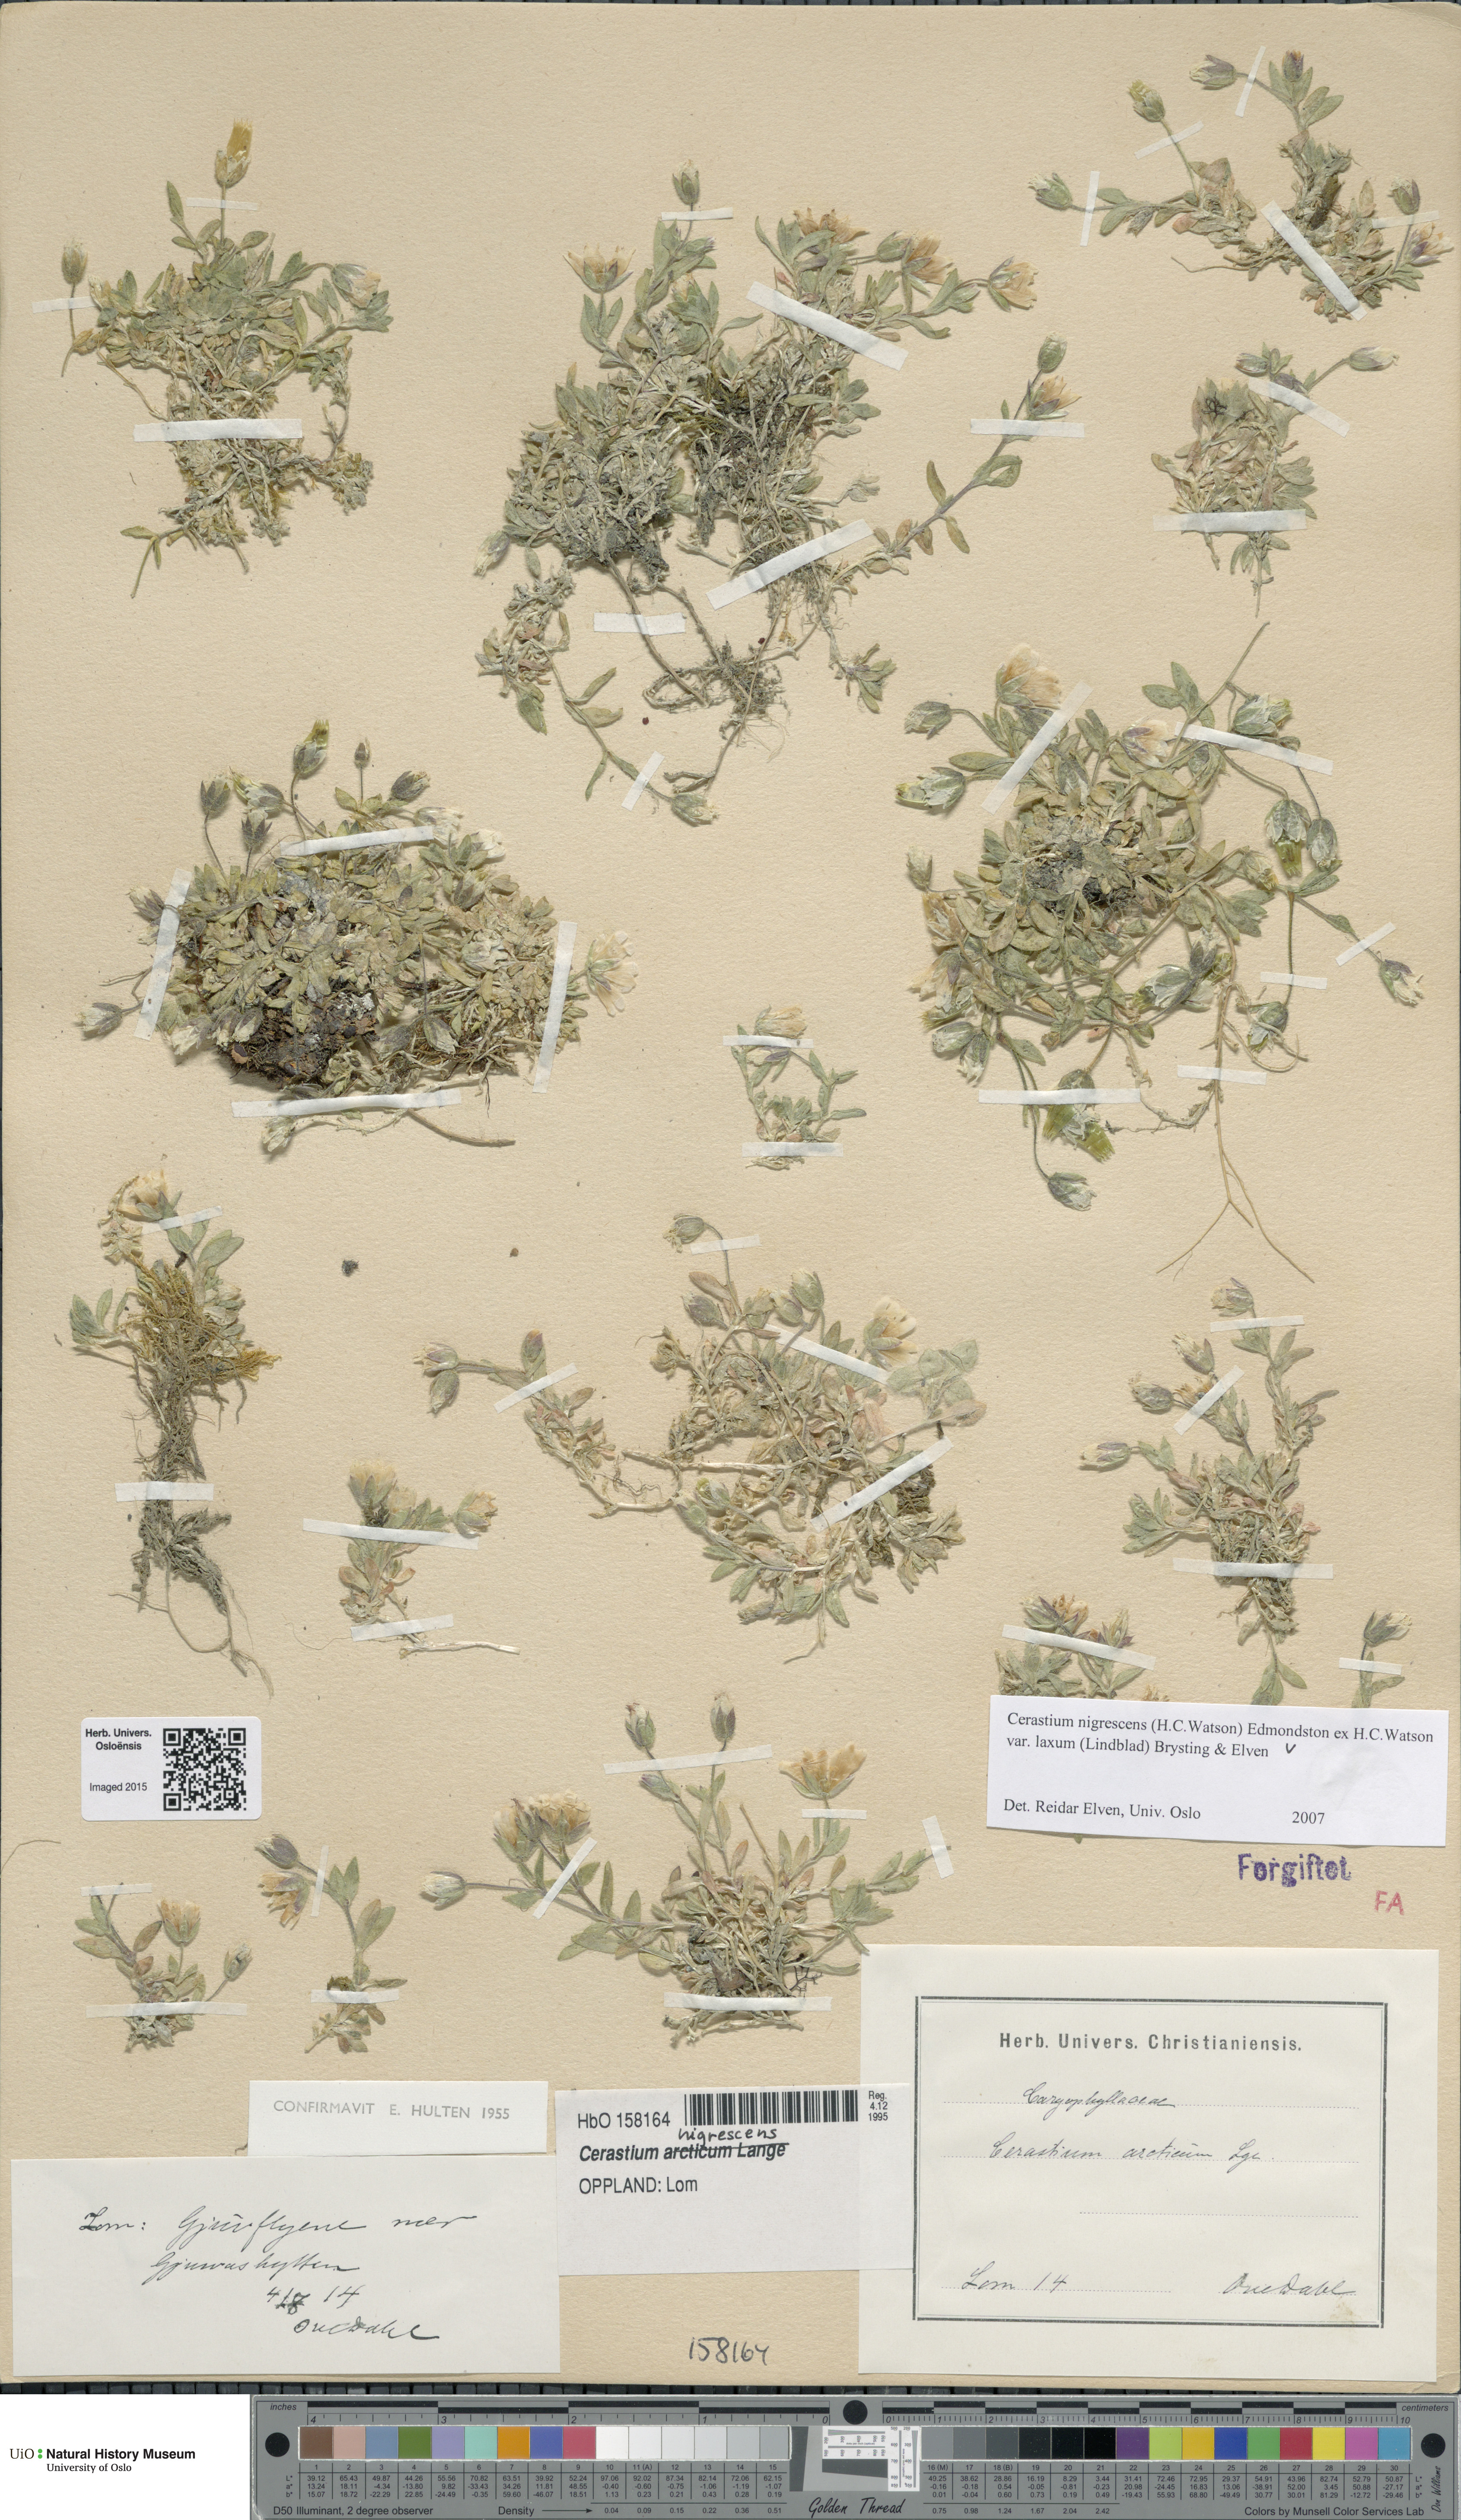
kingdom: Plantae
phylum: Tracheophyta
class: Magnoliopsida
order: Caryophyllales
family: Caryophyllaceae
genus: Cerastium
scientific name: Cerastium nigrescens
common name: Shetland mouse-ear
